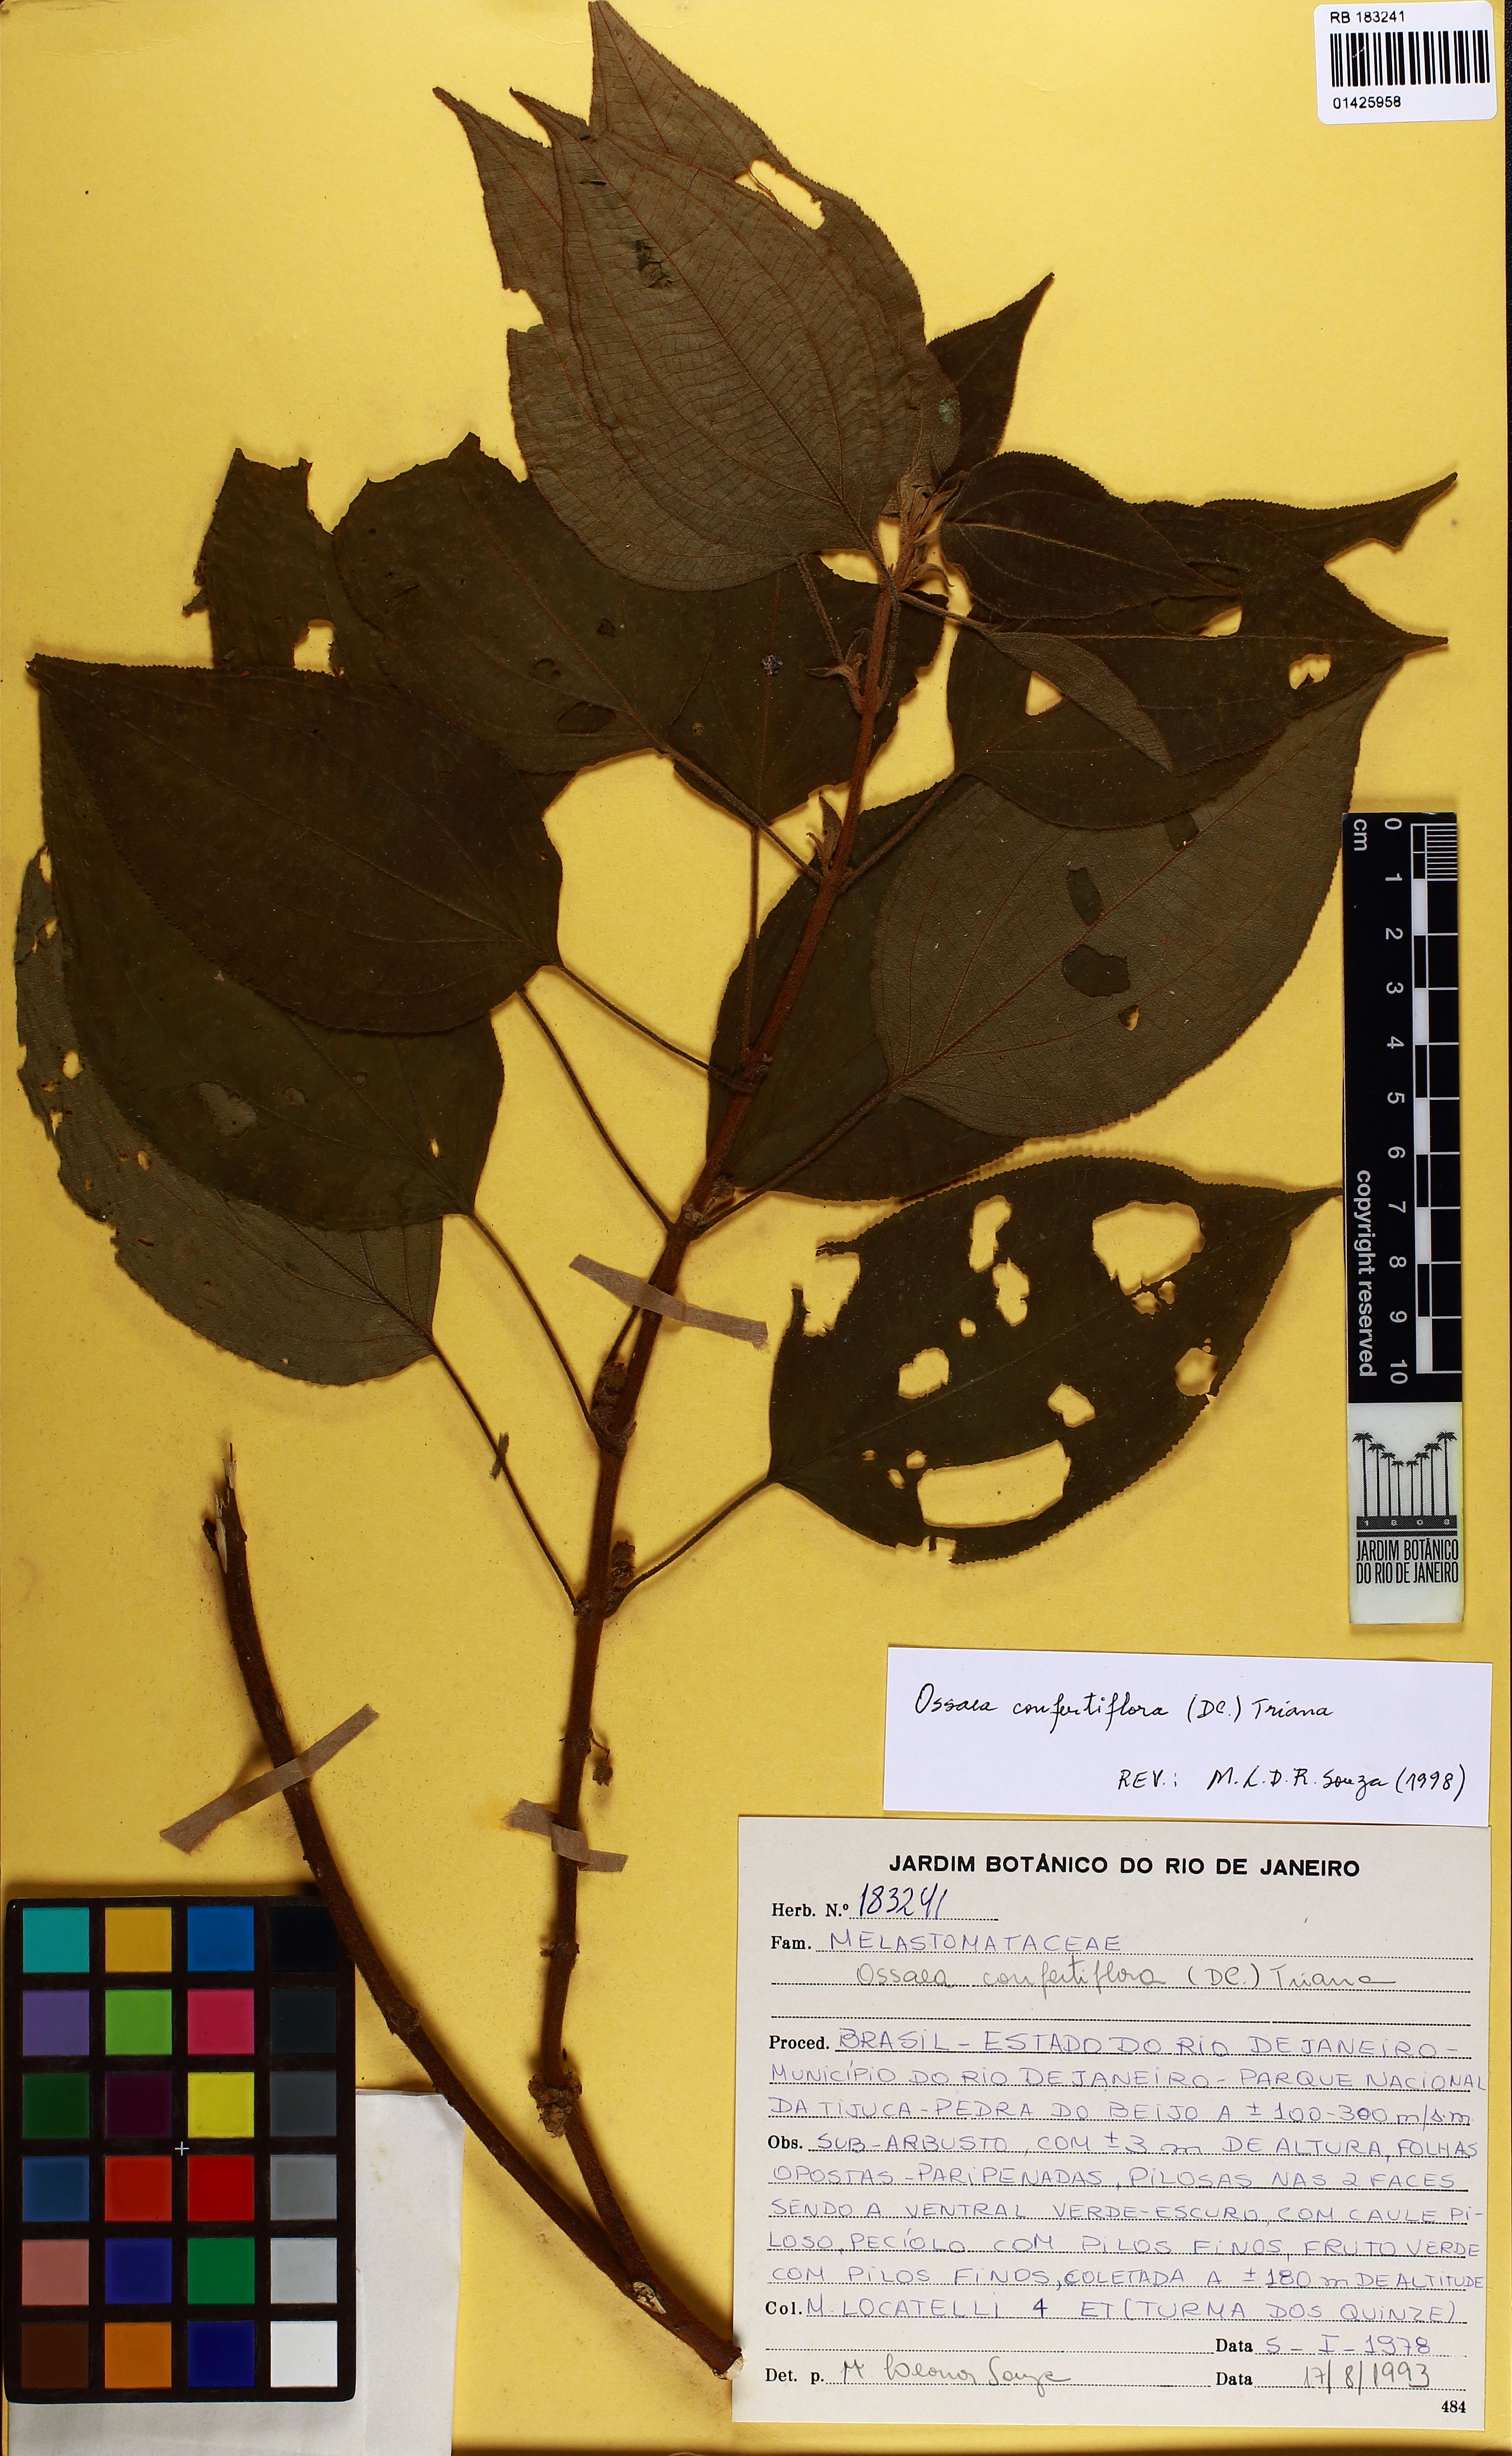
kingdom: Plantae
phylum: Tracheophyta
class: Magnoliopsida
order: Myrtales
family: Melastomataceae
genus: Miconia
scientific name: Miconia rubella
